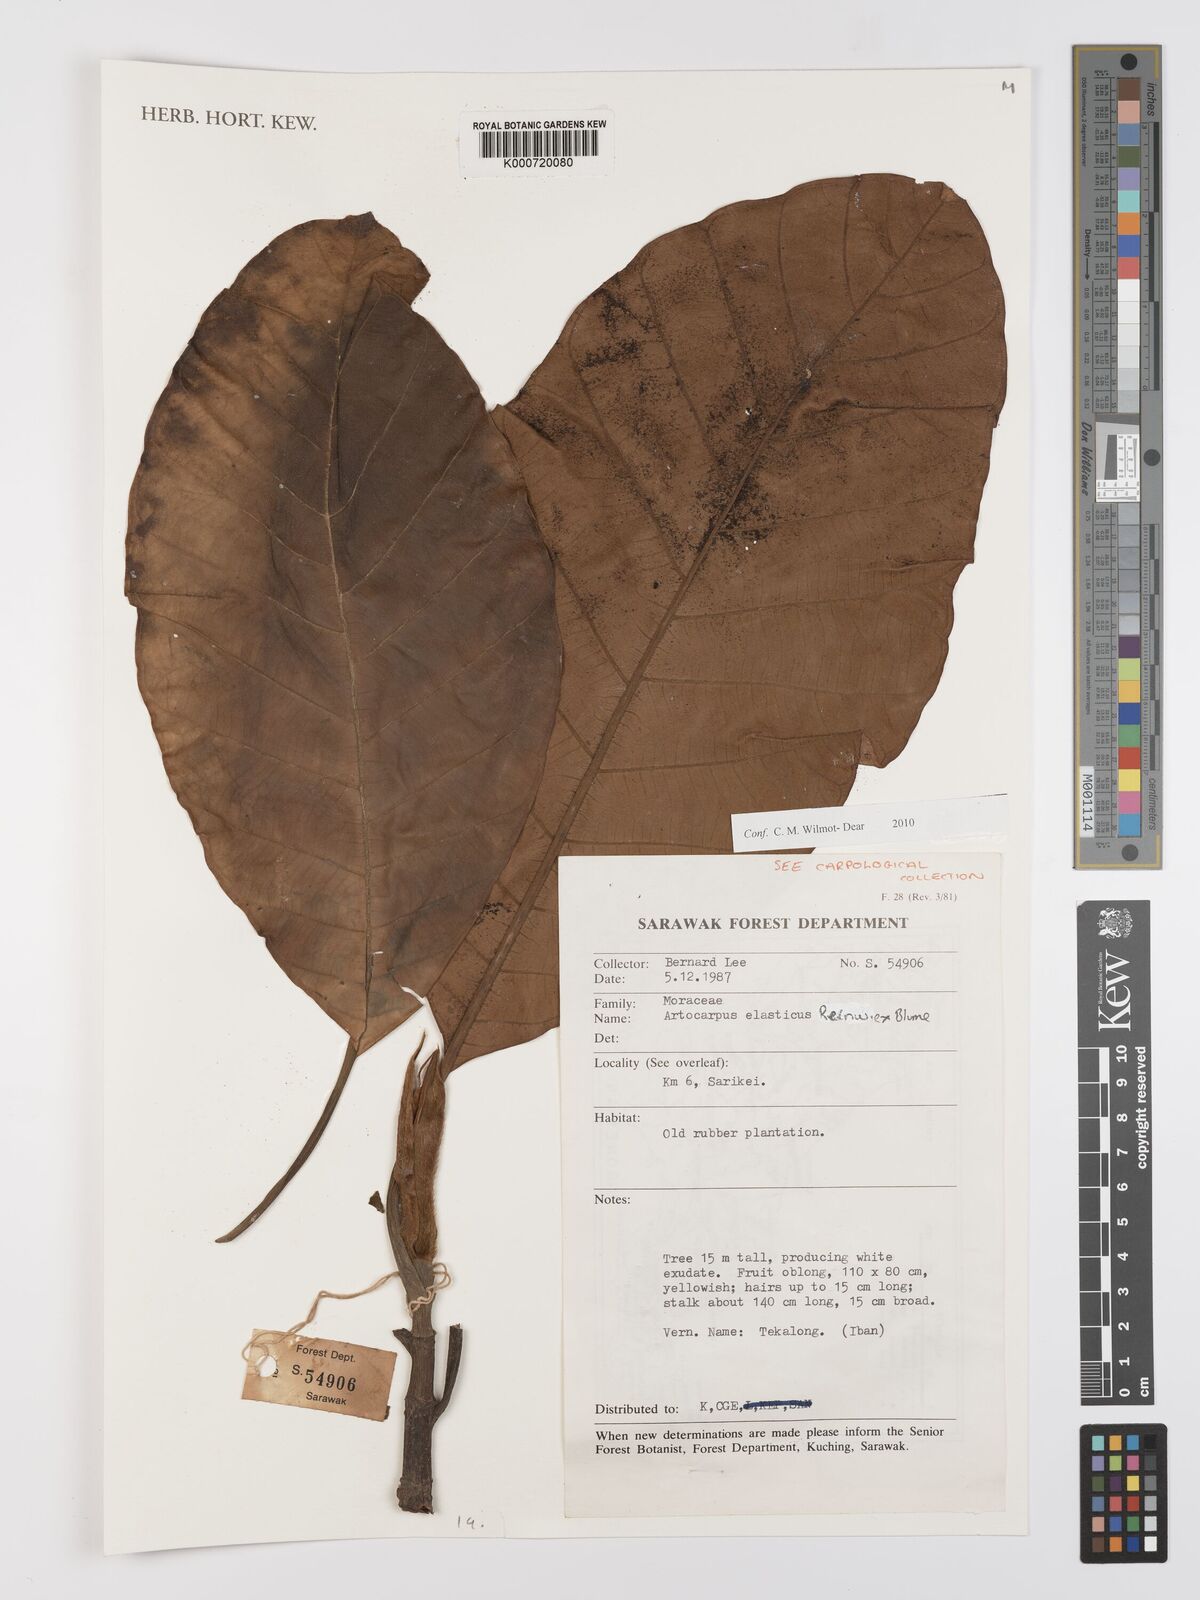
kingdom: Plantae
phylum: Tracheophyta
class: Magnoliopsida
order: Rosales
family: Moraceae
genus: Artocarpus
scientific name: Artocarpus elasticus
